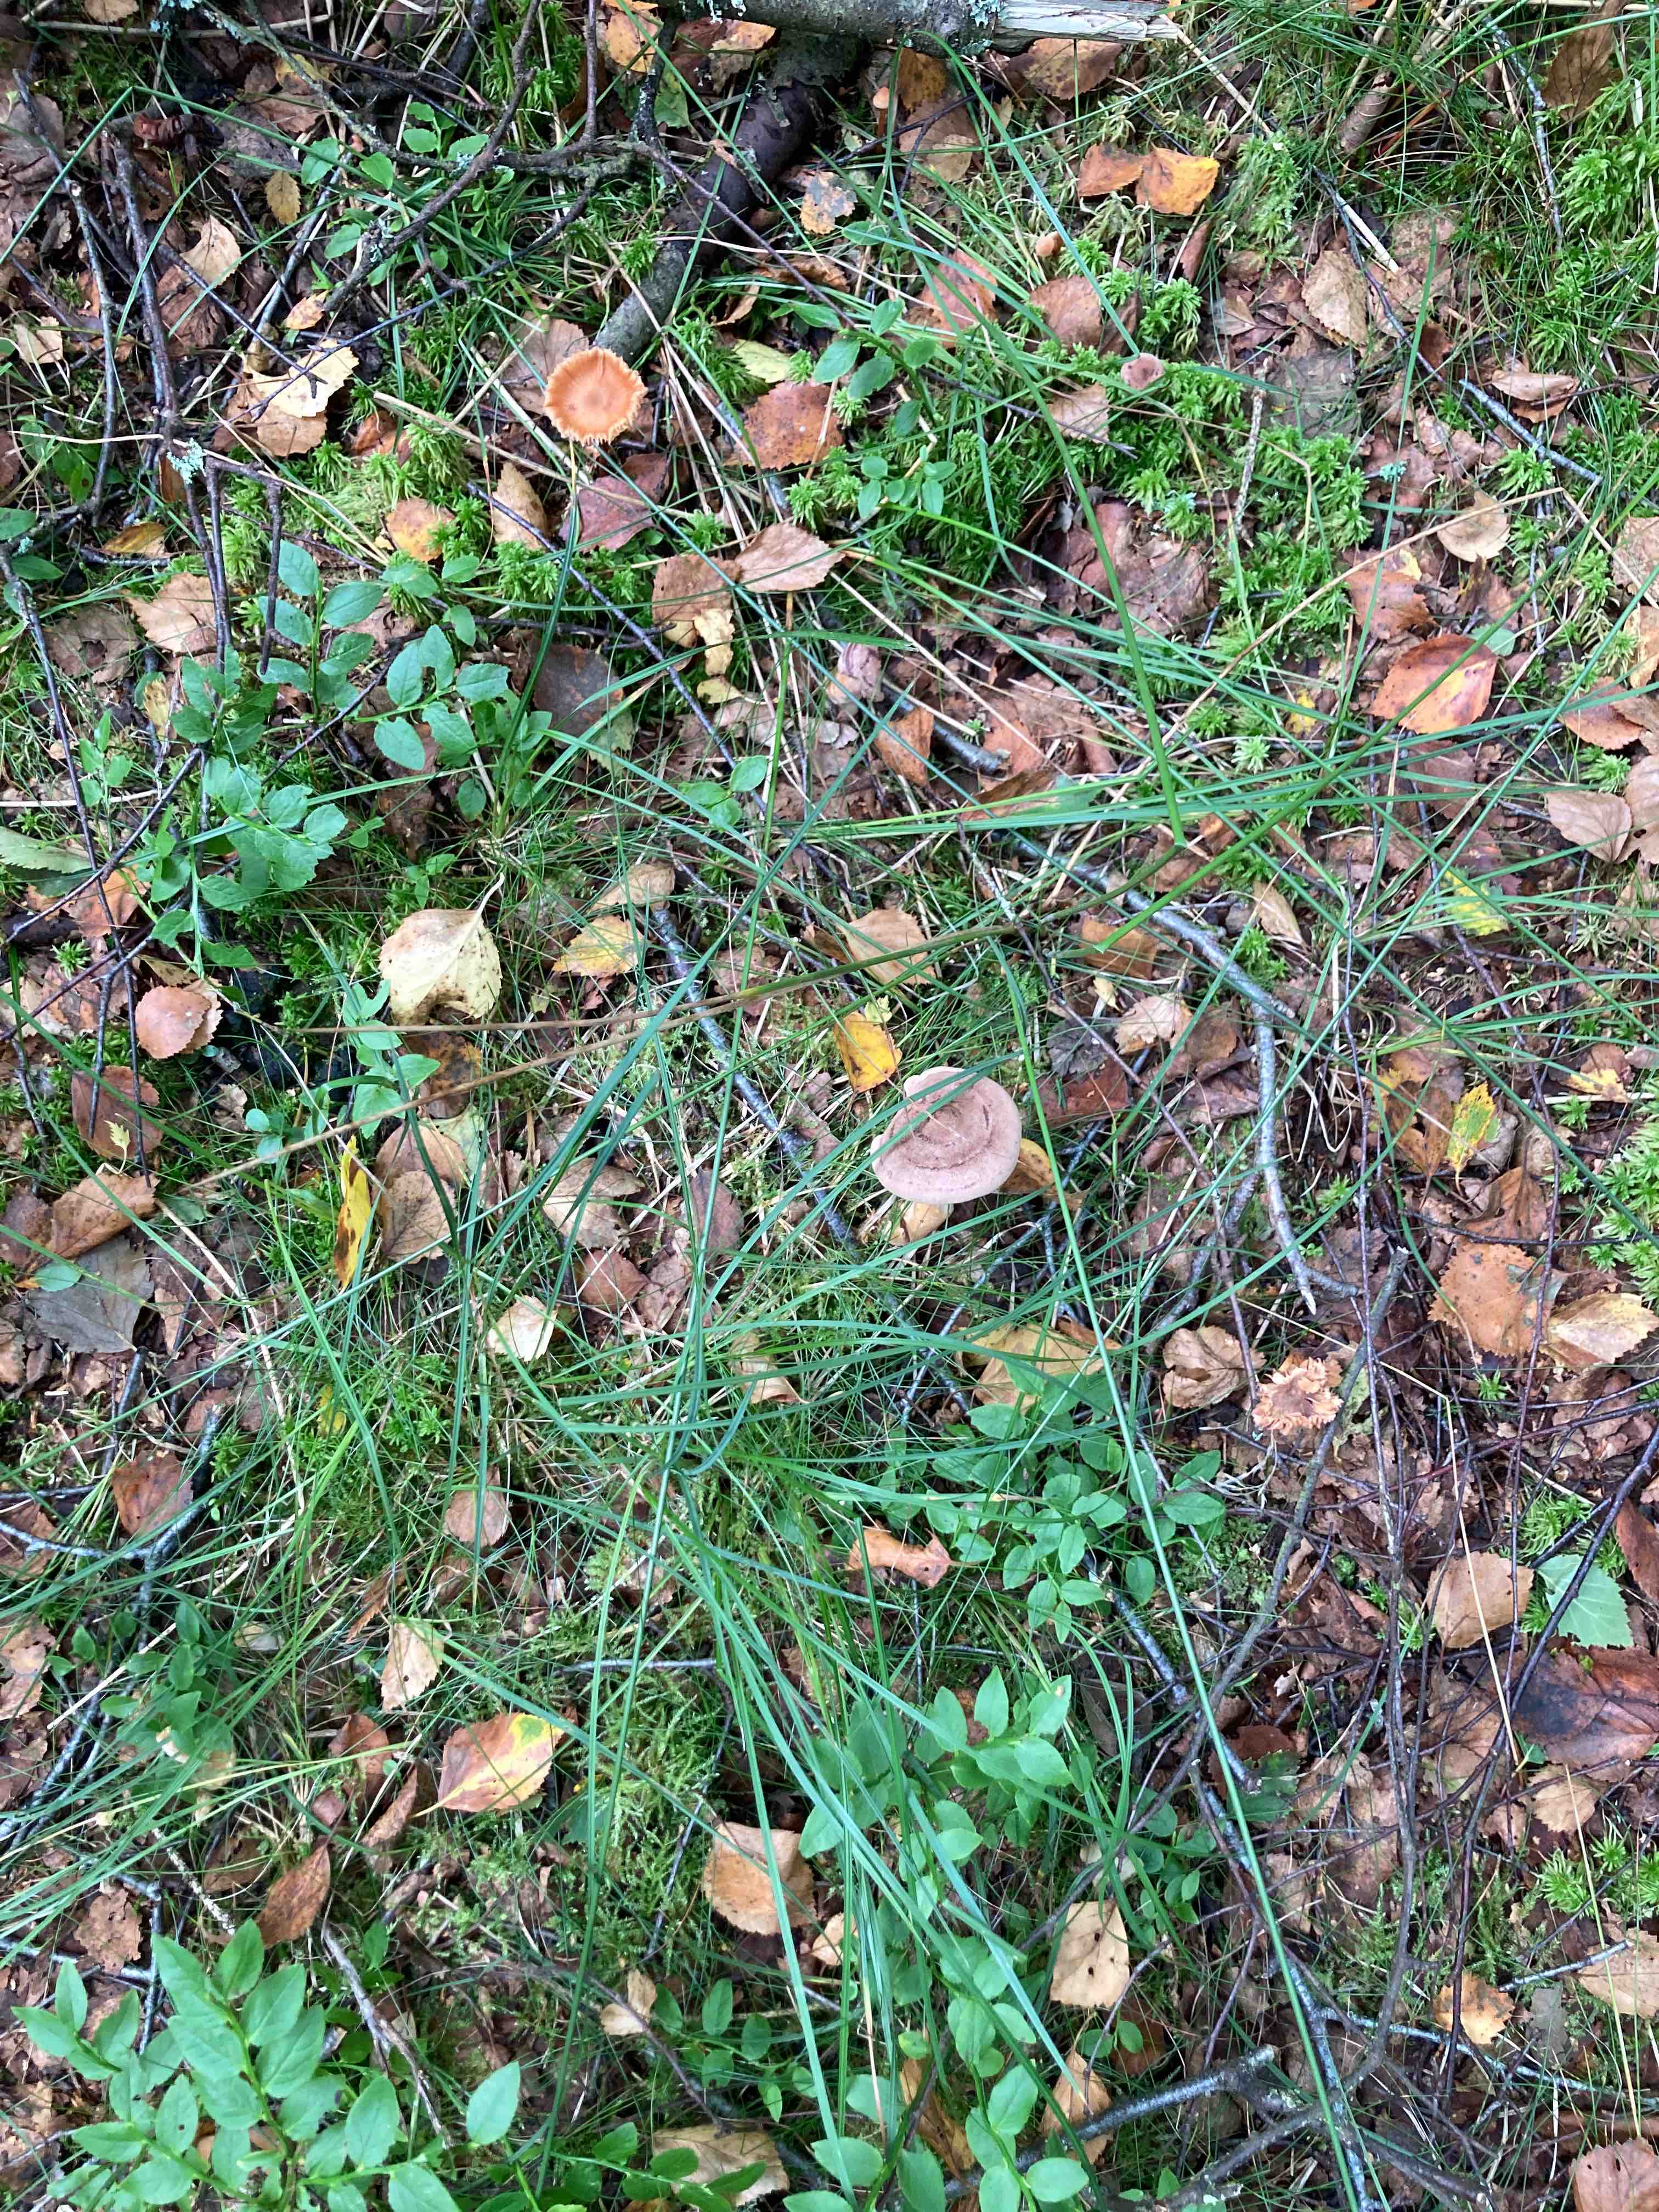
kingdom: Fungi
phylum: Basidiomycota
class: Agaricomycetes
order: Russulales
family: Russulaceae
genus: Lactarius
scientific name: Lactarius helvus
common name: mose-mælkehat
